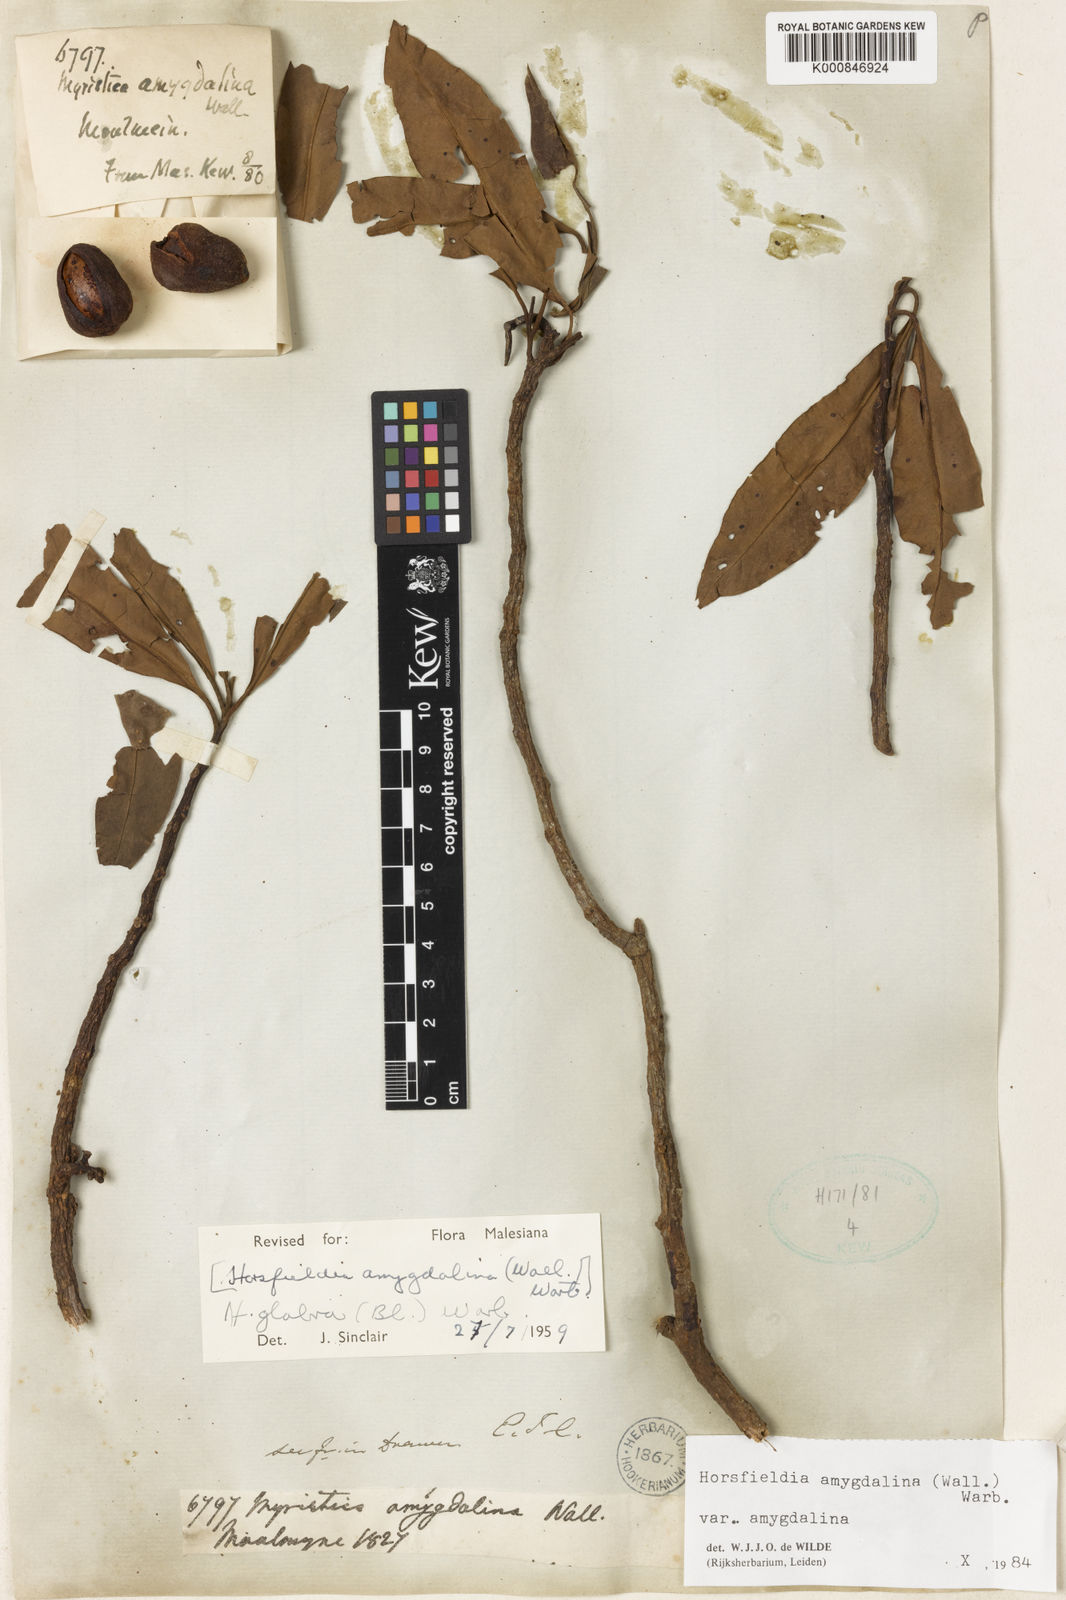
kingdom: Plantae
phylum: Tracheophyta
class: Magnoliopsida
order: Magnoliales
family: Myristicaceae
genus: Horsfieldia
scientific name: Horsfieldia amygdalina
